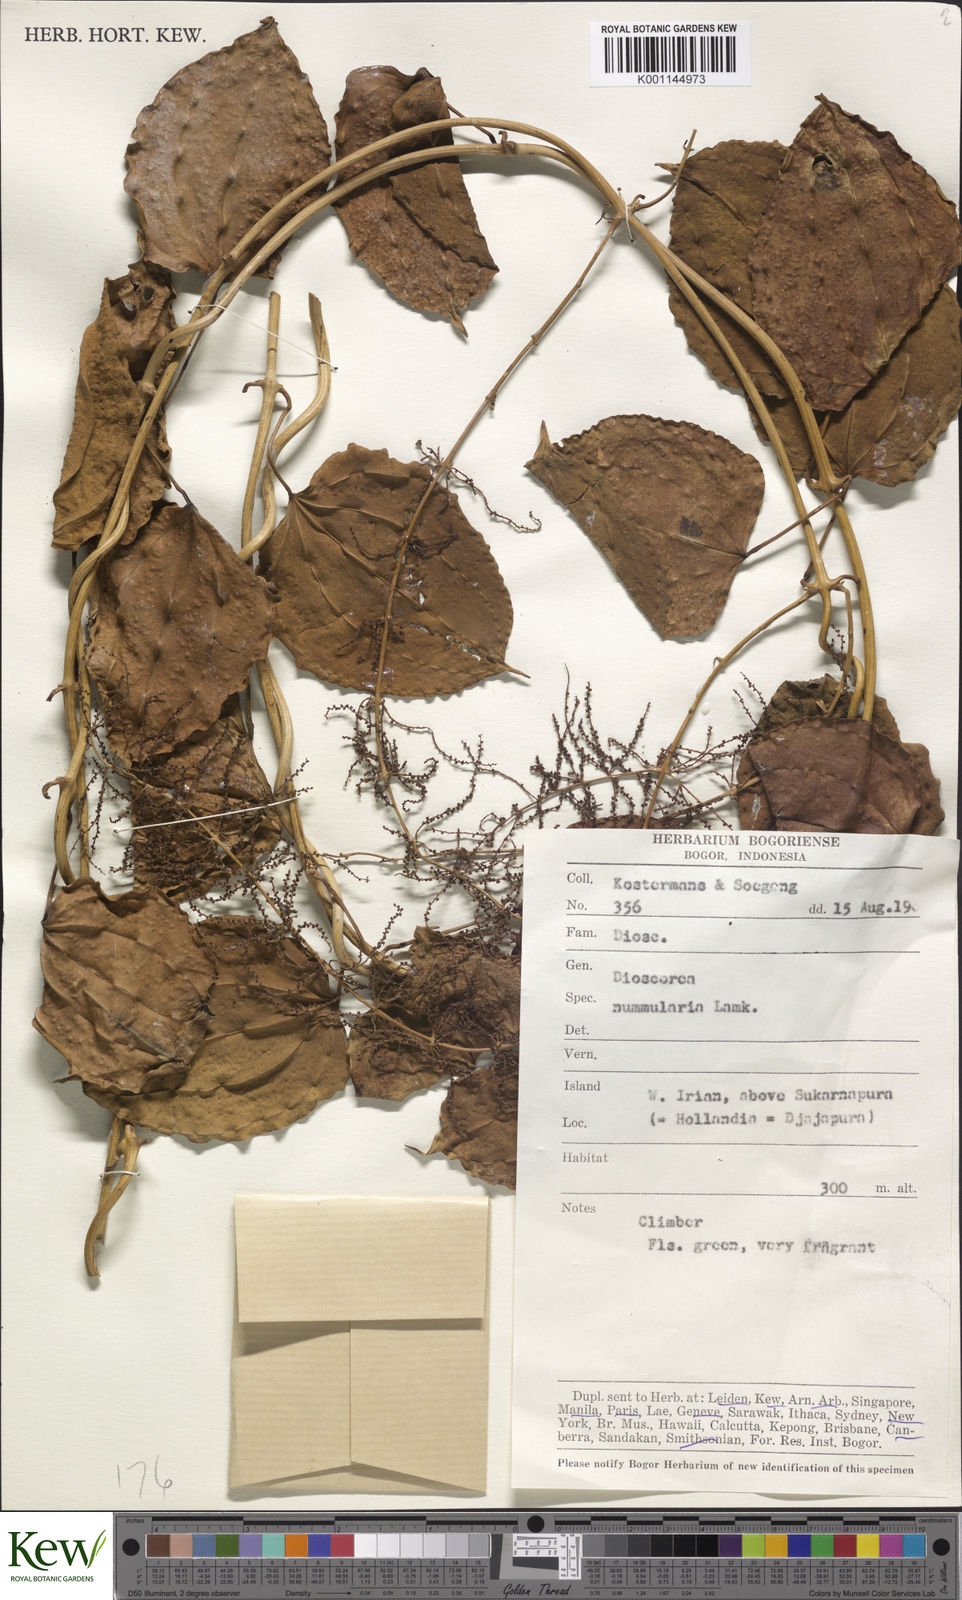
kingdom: Plantae
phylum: Tracheophyta
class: Liliopsida
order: Dioscoreales
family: Dioscoreaceae
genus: Dioscorea
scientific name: Dioscorea nummularia
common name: Pacific yam
